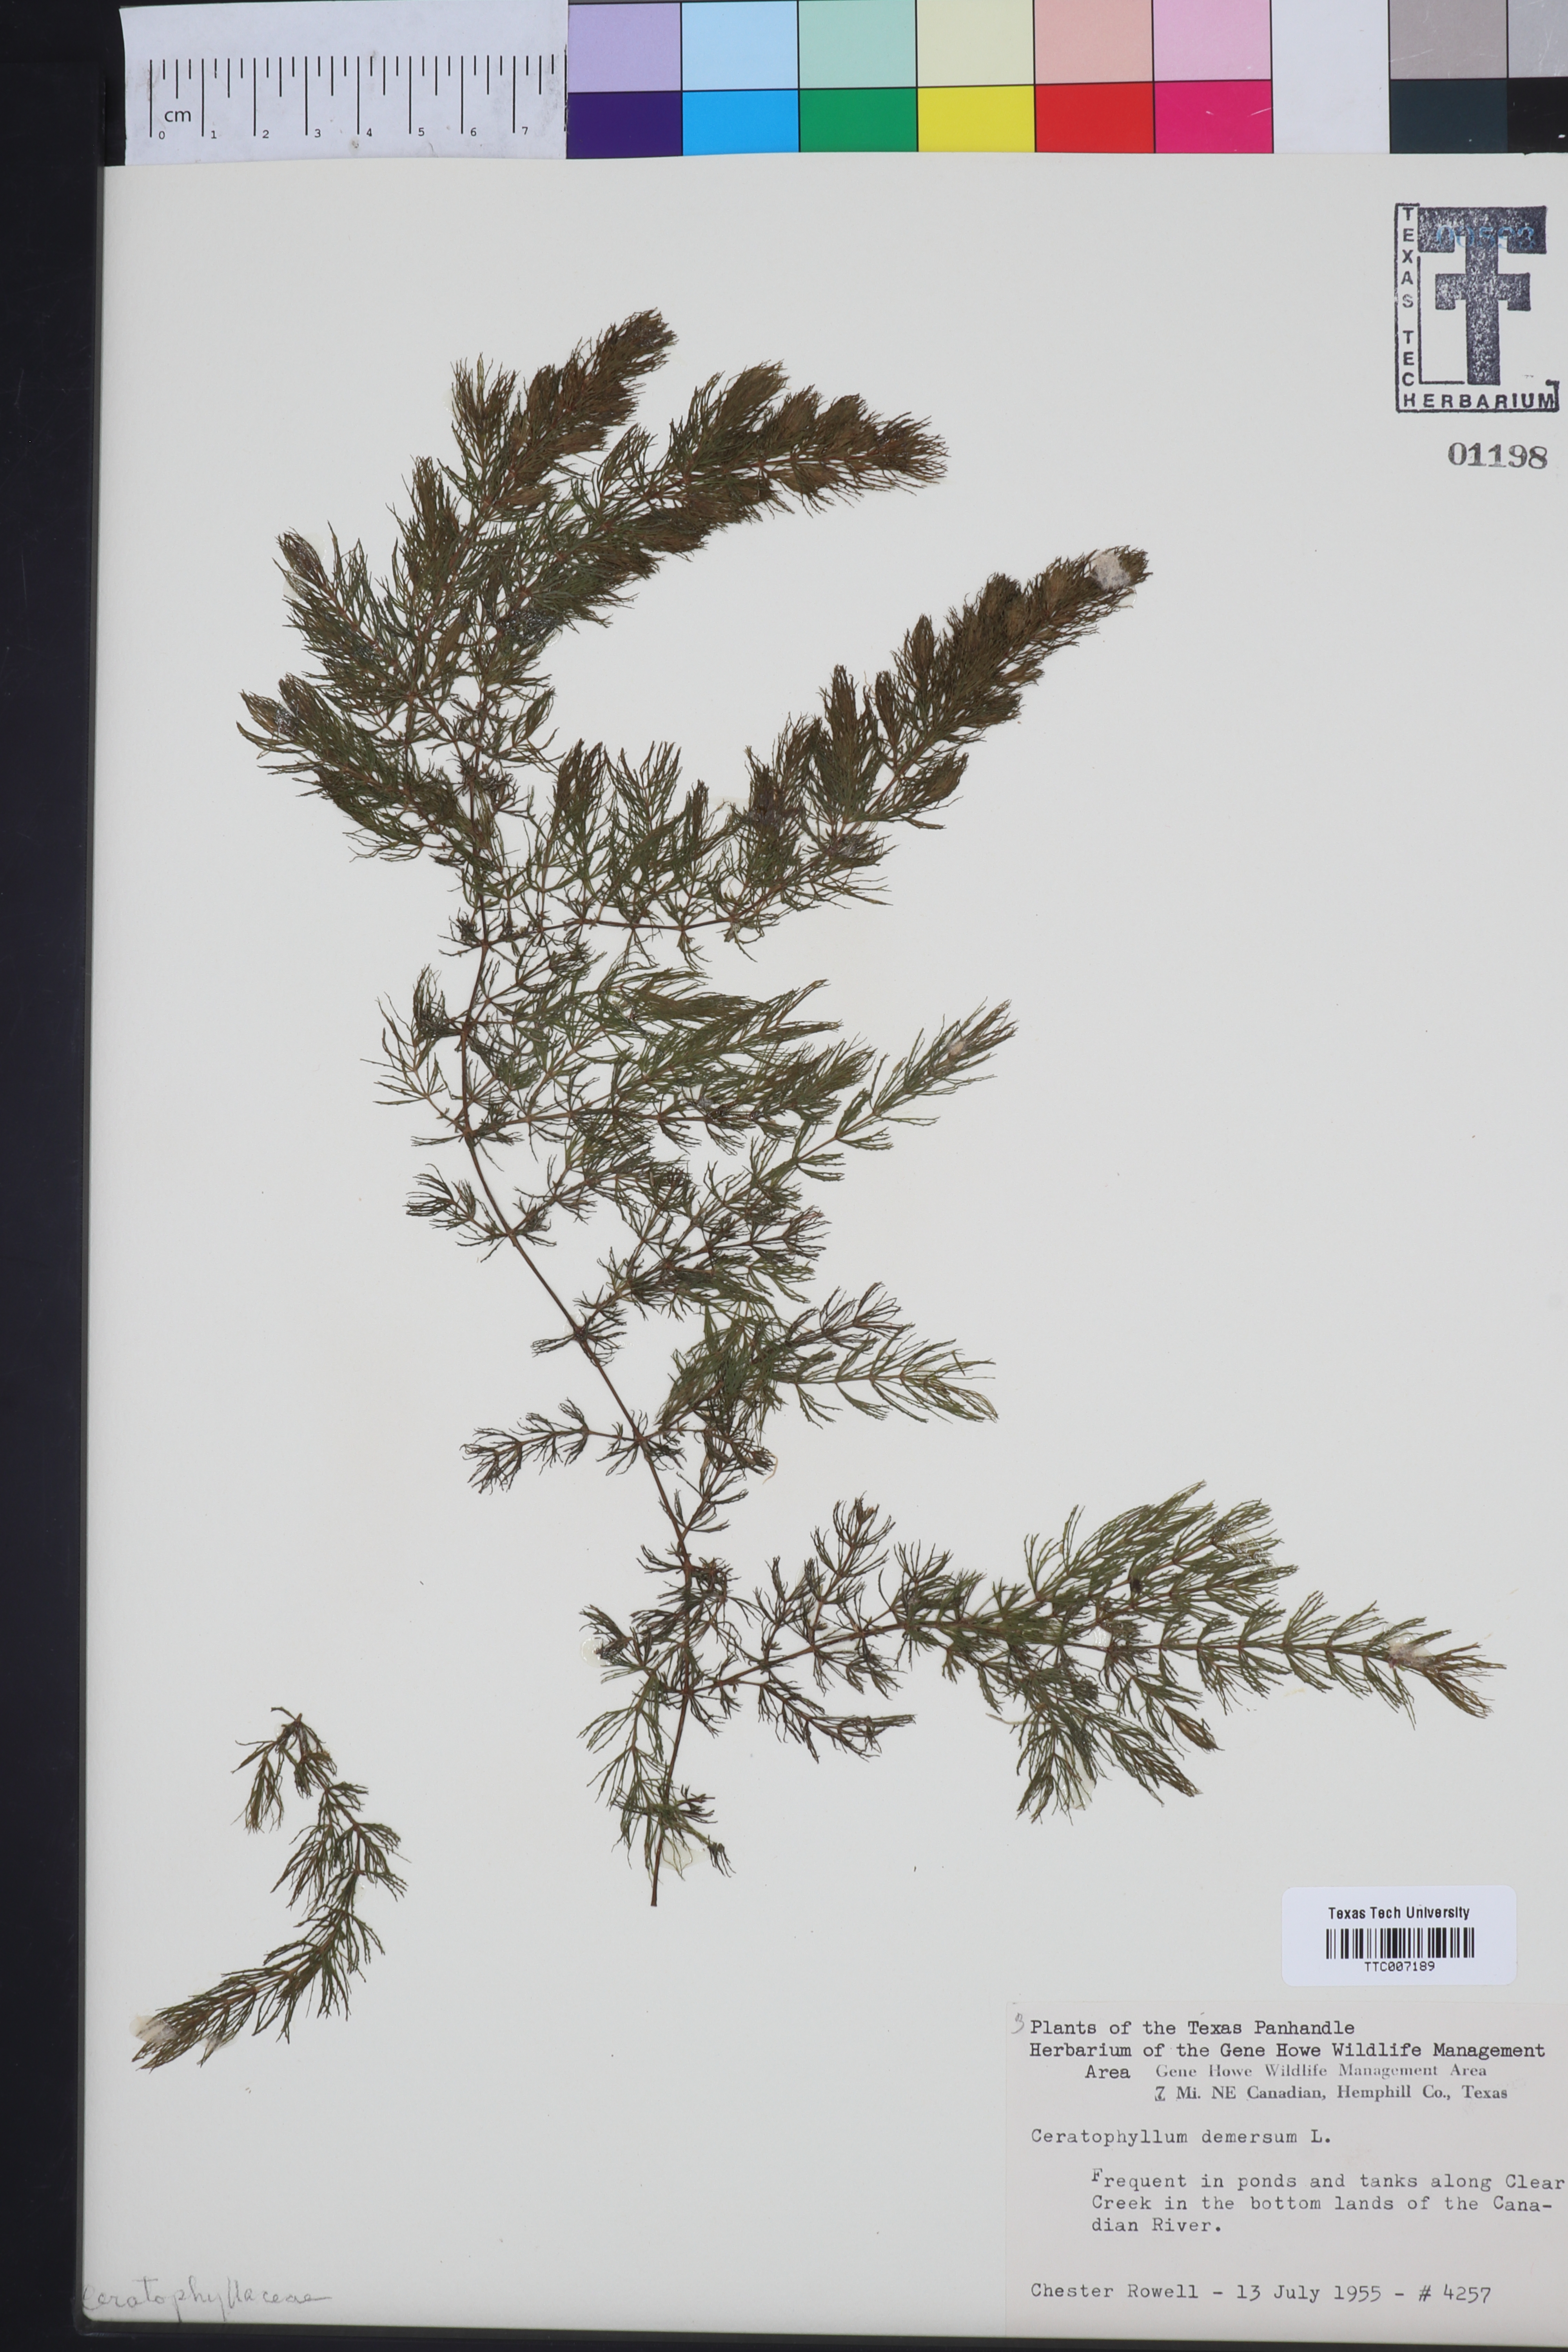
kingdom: Plantae
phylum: Tracheophyta
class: Magnoliopsida
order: Ceratophyllales
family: Ceratophyllaceae
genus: Ceratophyllum
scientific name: Ceratophyllum demersum
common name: Rigid hornwort
